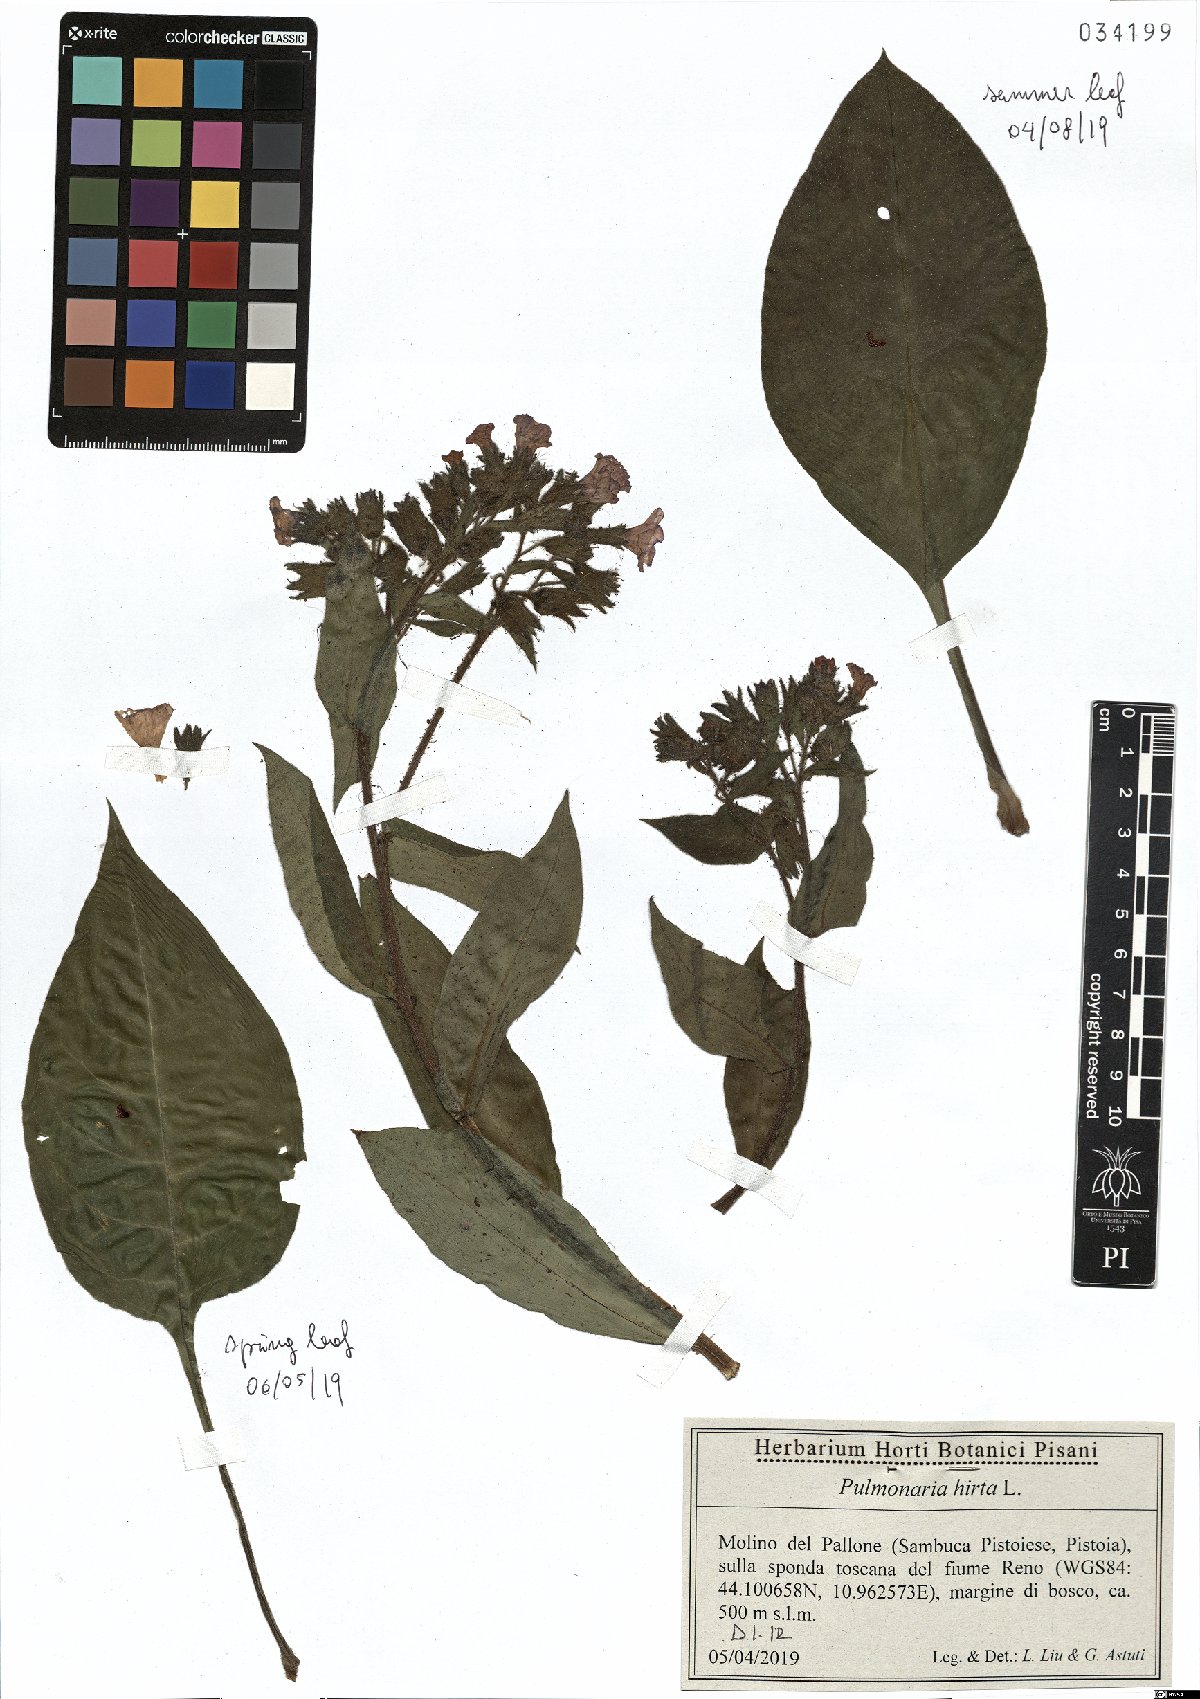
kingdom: Plantae
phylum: Tracheophyta
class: Magnoliopsida
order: Boraginales
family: Boraginaceae
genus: Pulmonaria
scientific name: Pulmonaria hirta
